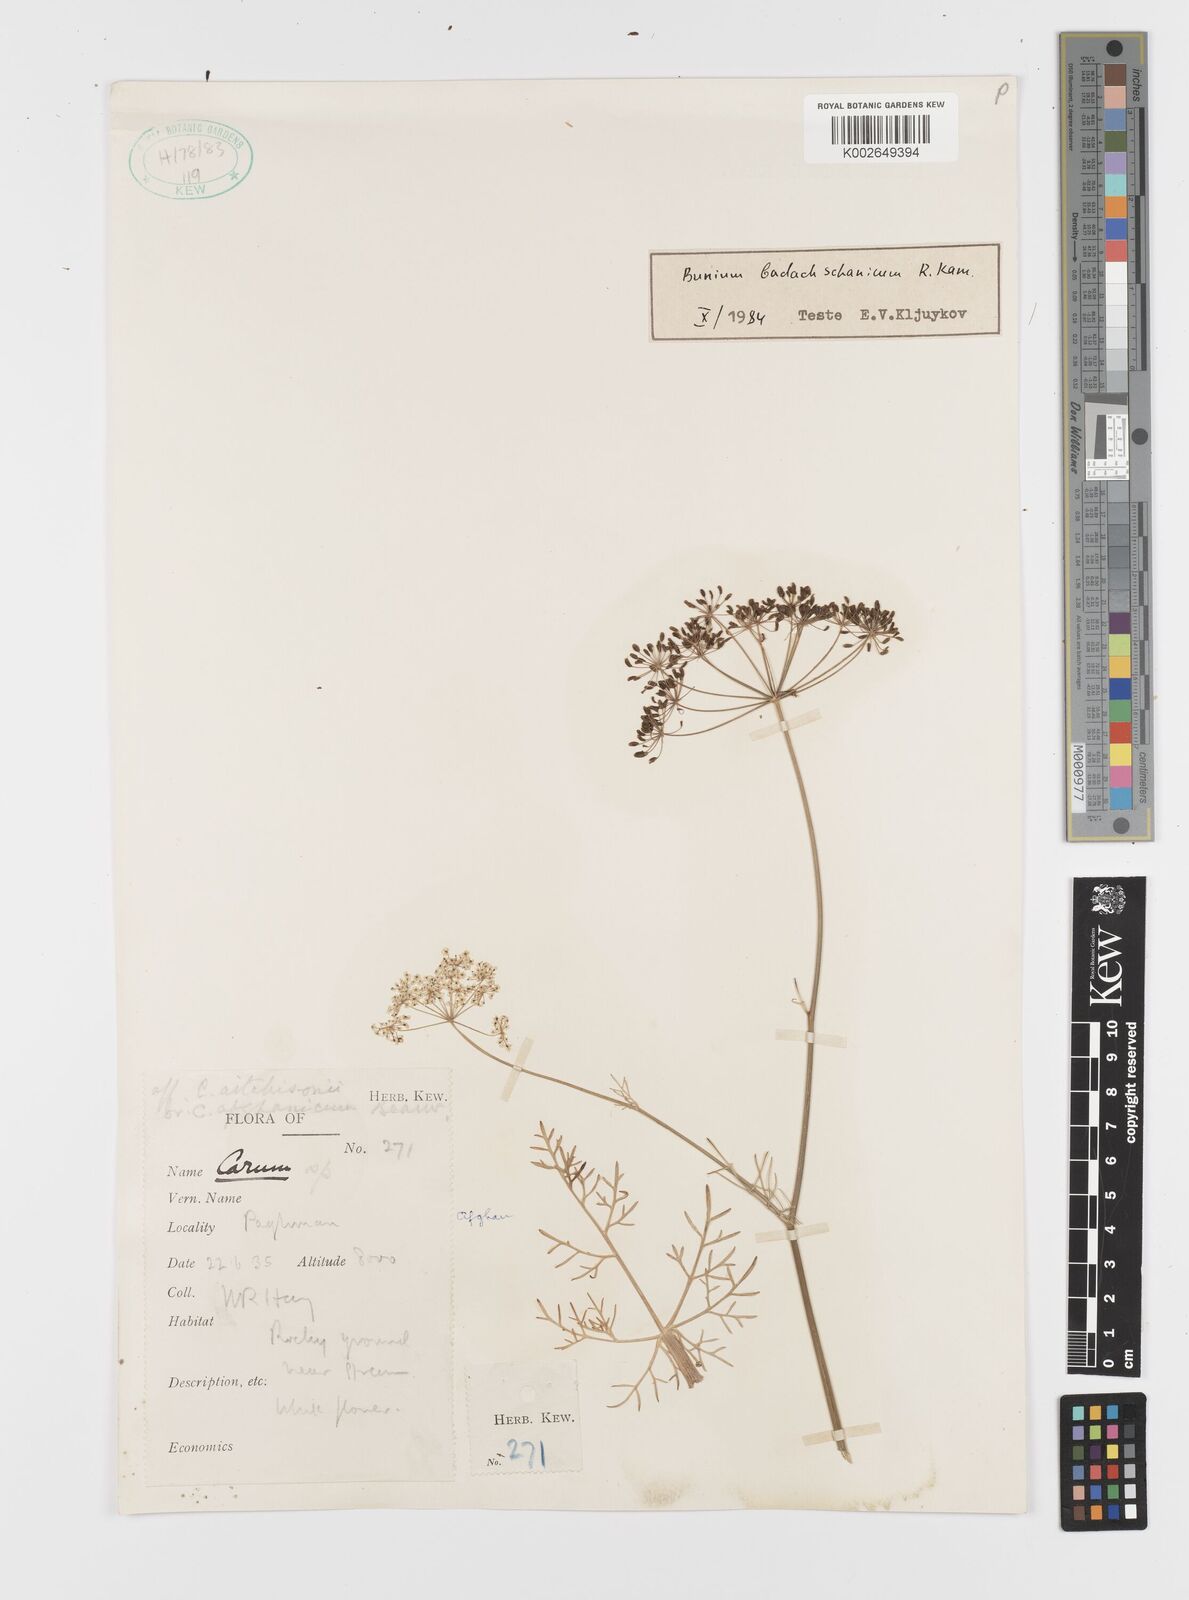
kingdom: Plantae
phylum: Tracheophyta
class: Magnoliopsida
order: Apiales
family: Apiaceae
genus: Elwendia
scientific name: Elwendia badachschanica
